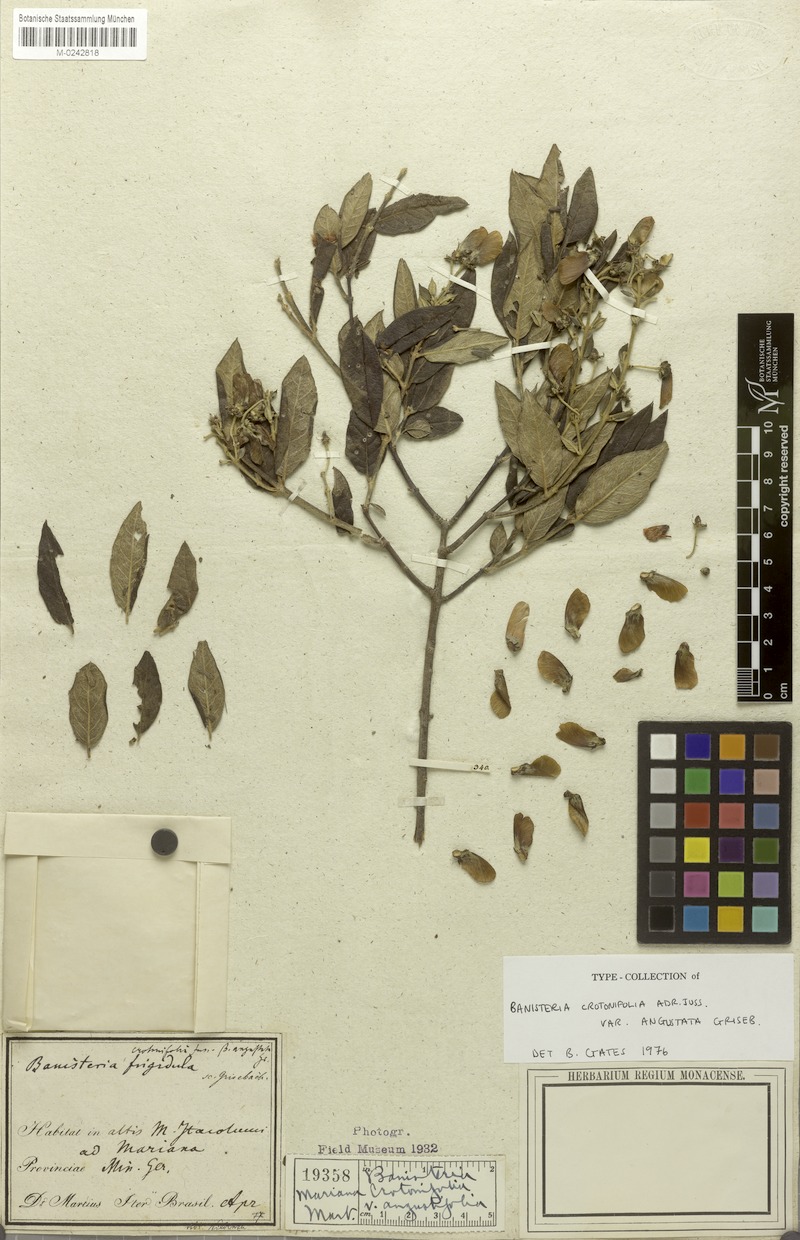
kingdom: Plantae
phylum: Tracheophyta
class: Magnoliopsida
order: Malpighiales
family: Malpighiaceae
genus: Banisteriopsis
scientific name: Banisteriopsis malifolia
